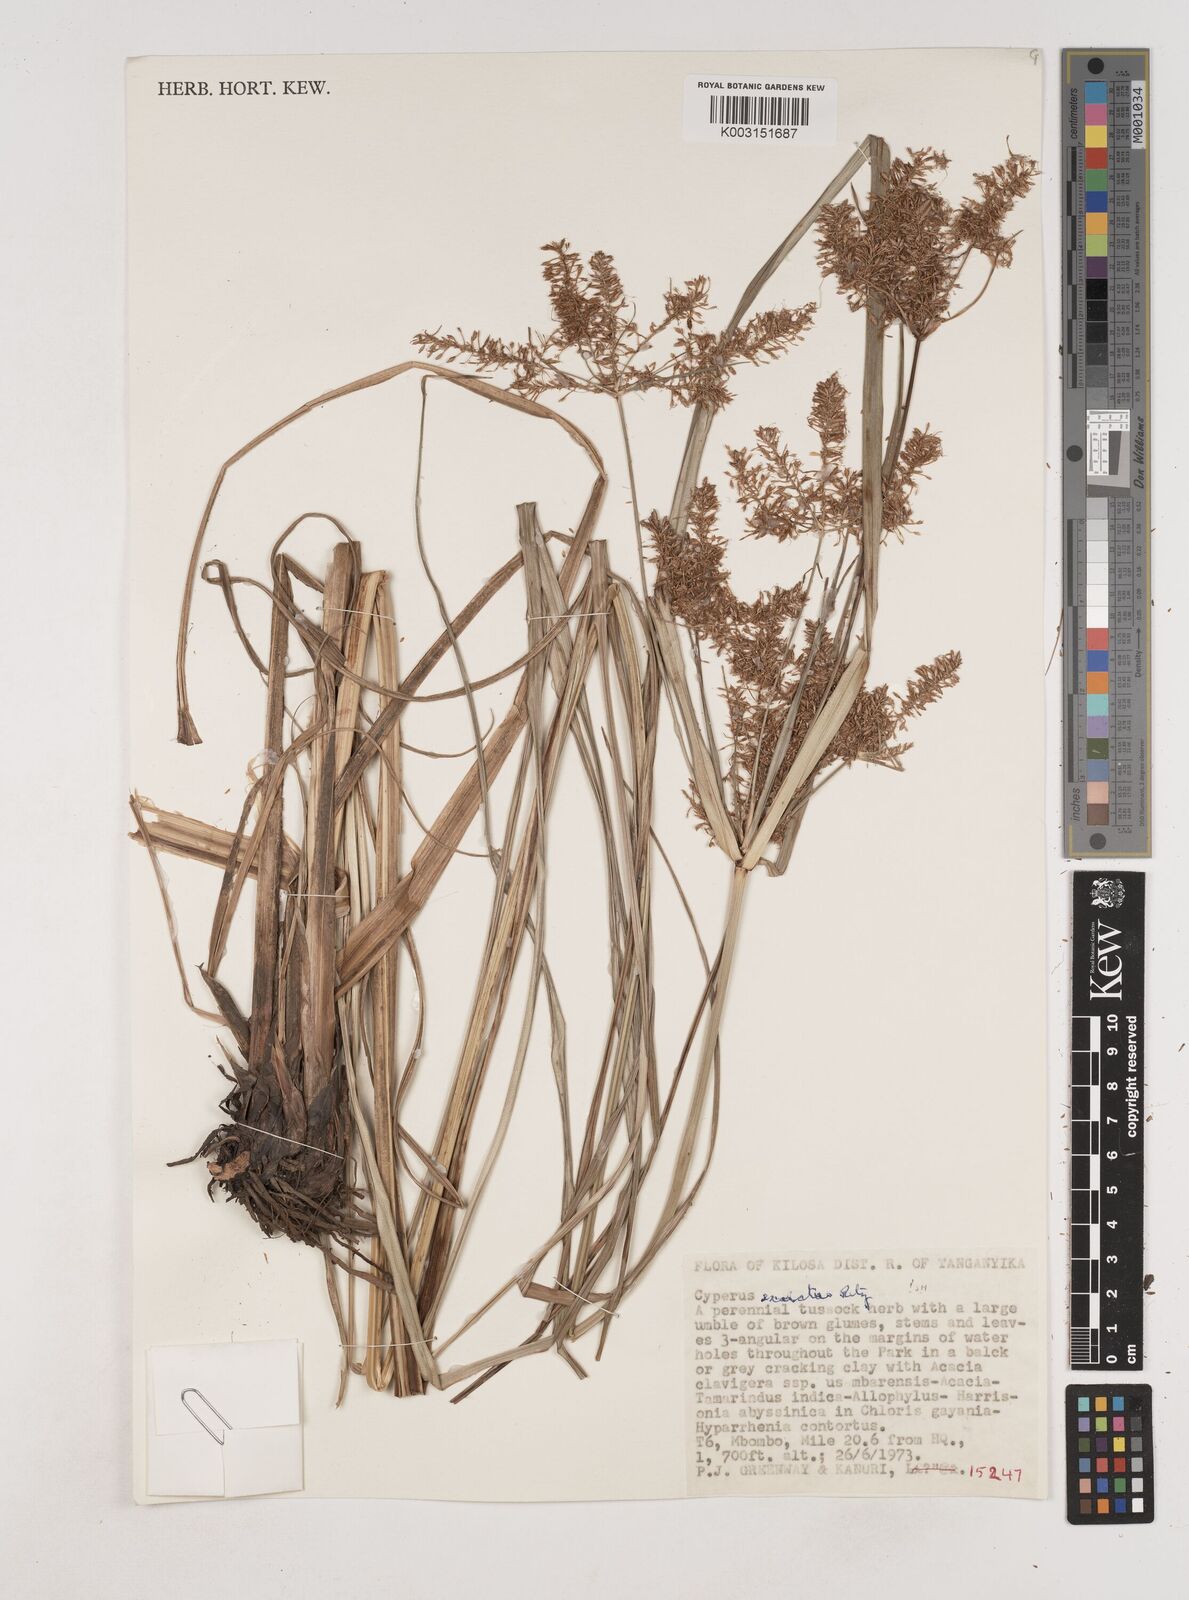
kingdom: Plantae
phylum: Tracheophyta
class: Liliopsida
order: Poales
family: Cyperaceae
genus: Cyperus
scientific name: Cyperus exaltatus
